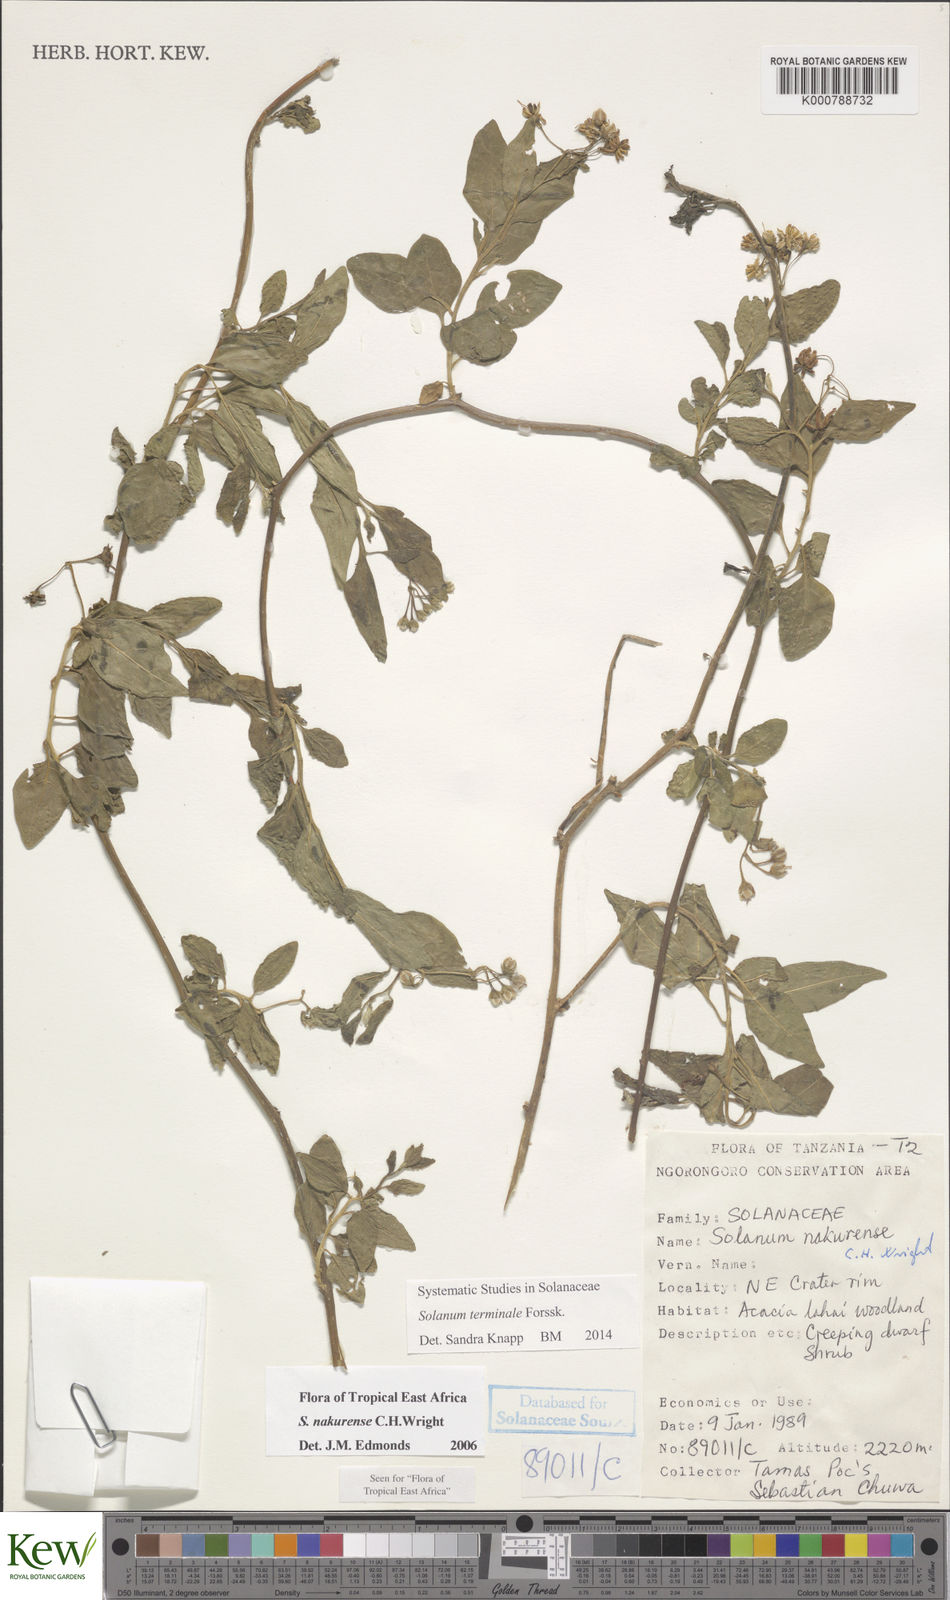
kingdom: Plantae
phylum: Tracheophyta
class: Magnoliopsida
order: Solanales
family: Solanaceae
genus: Solanum
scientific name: Solanum terminale
